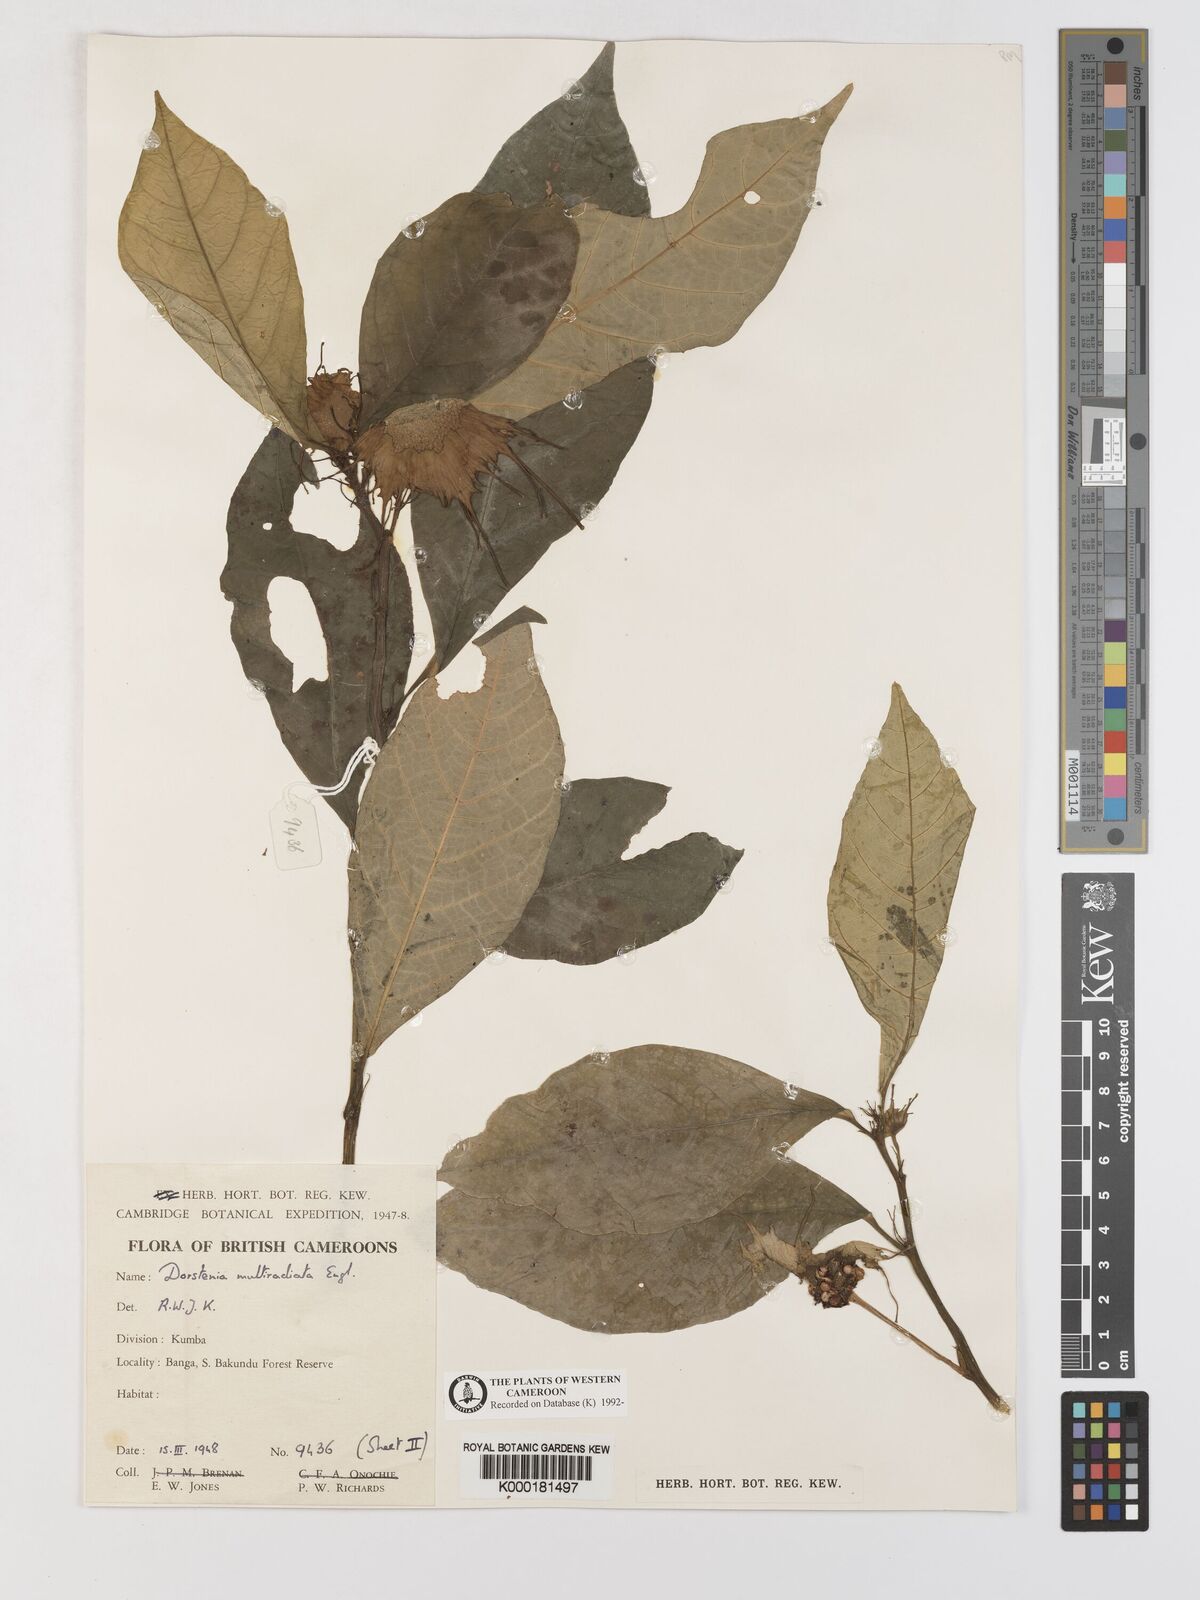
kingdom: Plantae
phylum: Tracheophyta
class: Magnoliopsida
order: Rosales
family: Moraceae
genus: Dorstenia
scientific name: Dorstenia barteri
